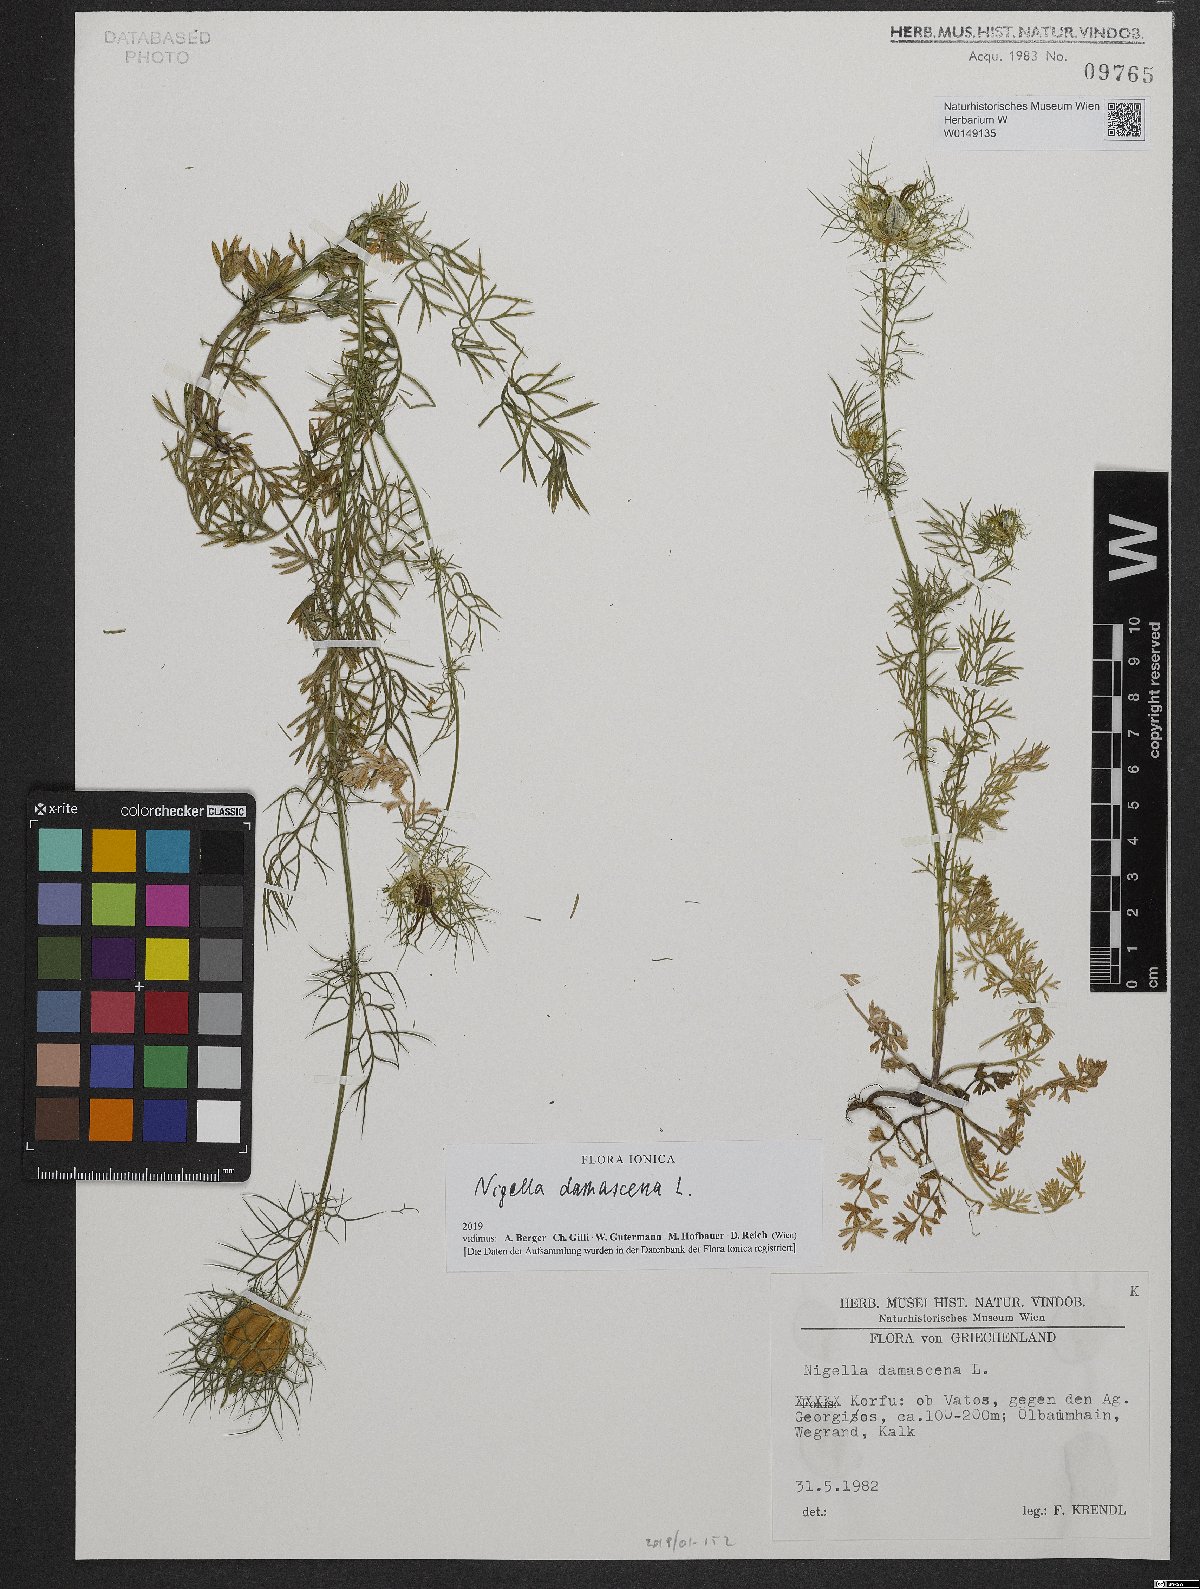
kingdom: Plantae
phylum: Tracheophyta
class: Magnoliopsida
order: Ranunculales
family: Ranunculaceae
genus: Nigella
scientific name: Nigella damascena
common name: Love-in-a-mist
